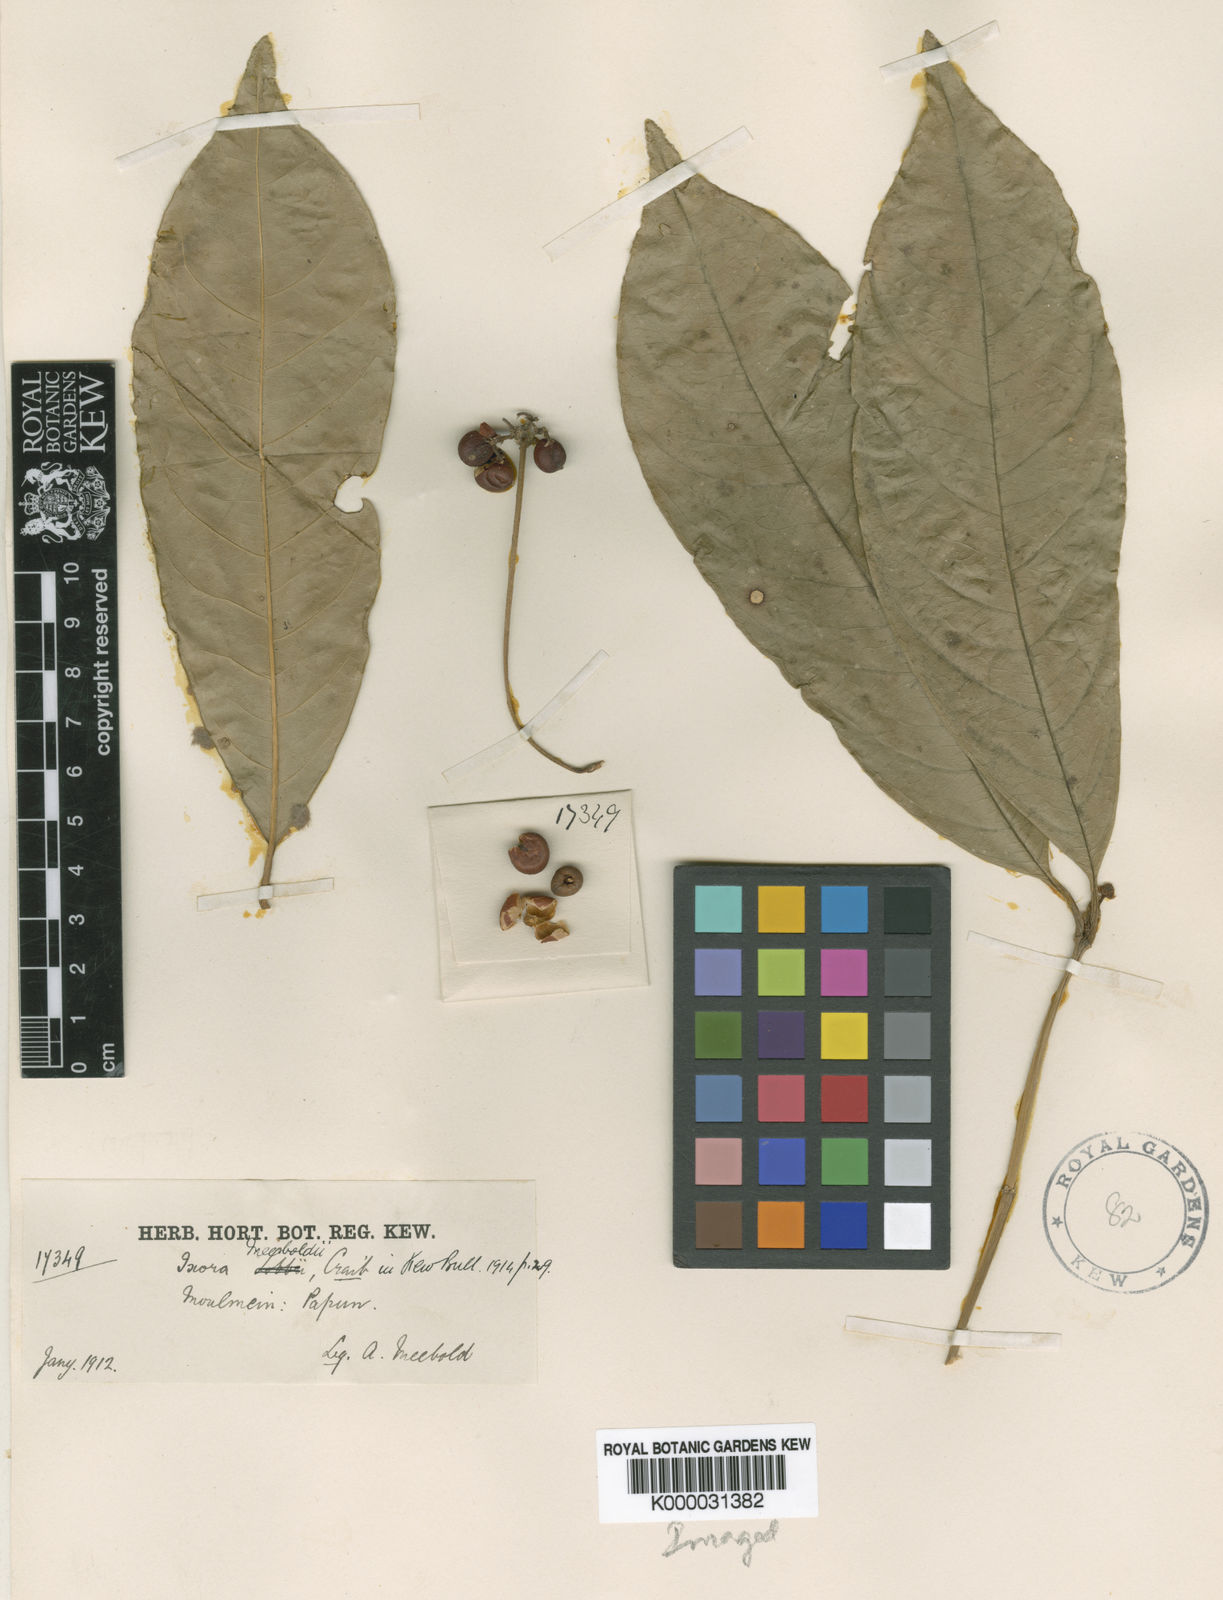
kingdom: Plantae
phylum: Tracheophyta
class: Magnoliopsida
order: Gentianales
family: Rubiaceae
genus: Ixora
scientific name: Ixora meeboldii
